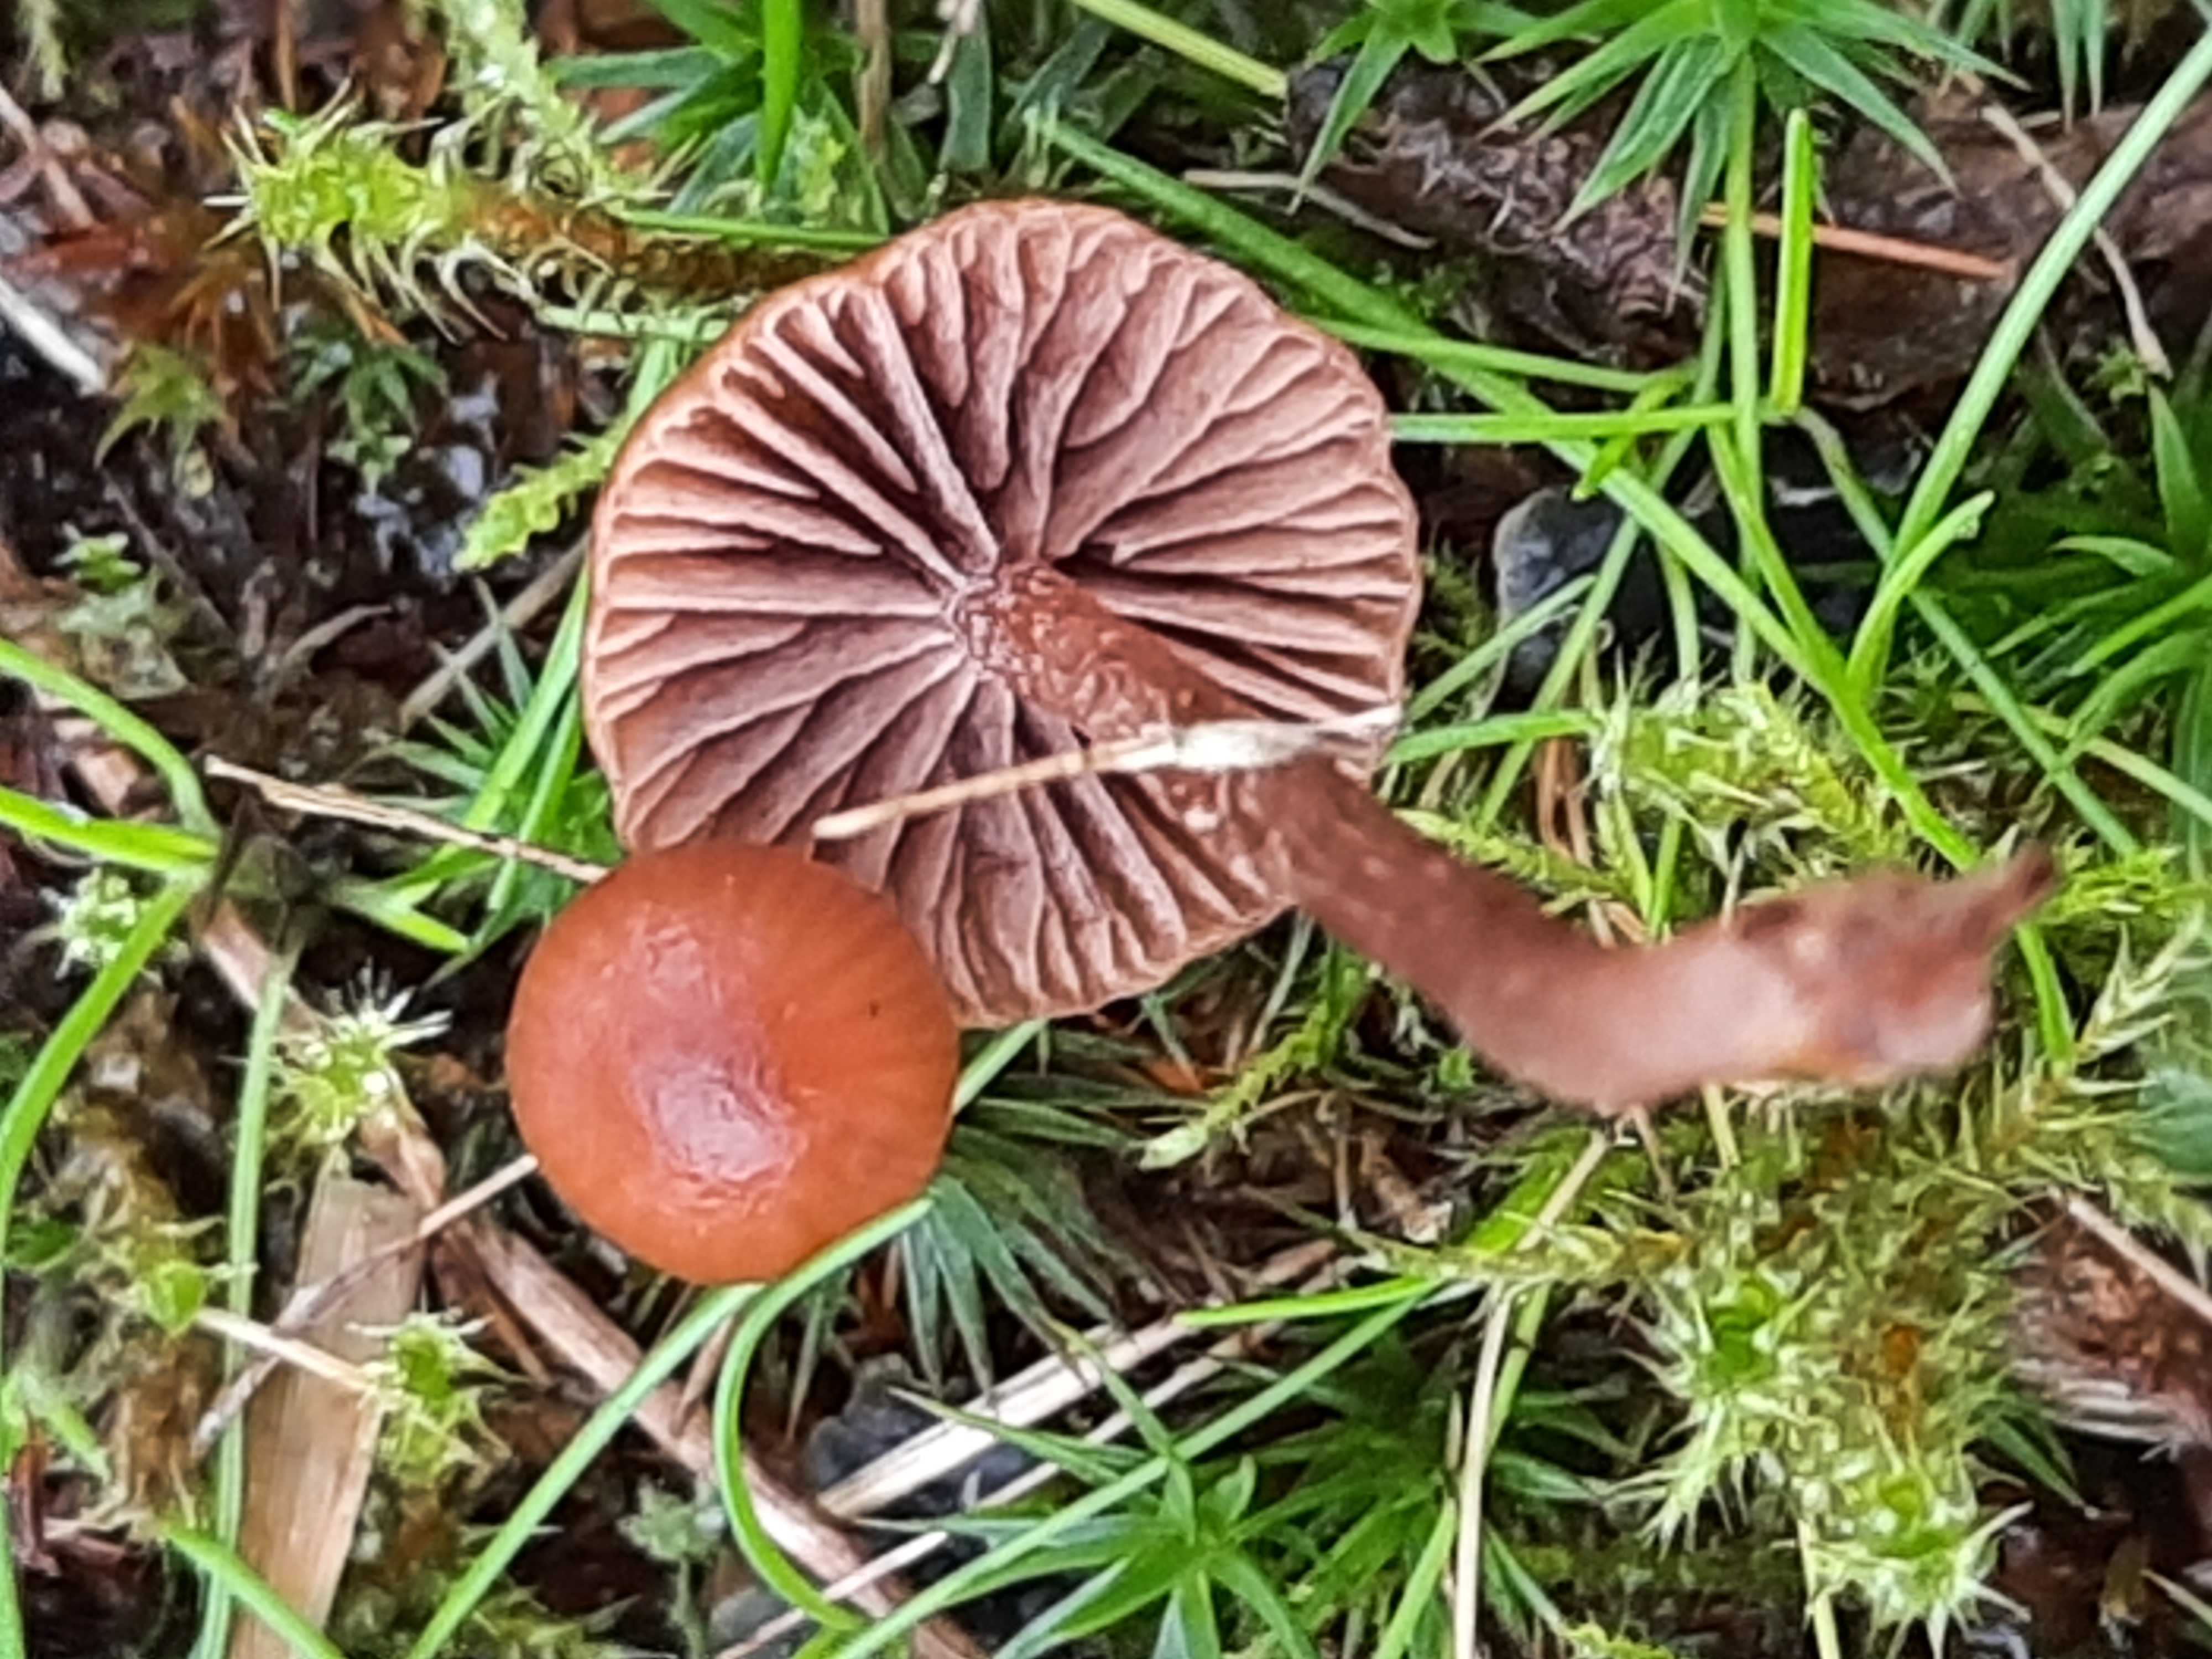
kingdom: Fungi
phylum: Basidiomycota
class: Agaricomycetes
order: Agaricales
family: Strophariaceae
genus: Deconica
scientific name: Deconica montana
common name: rødbrun stråhat
